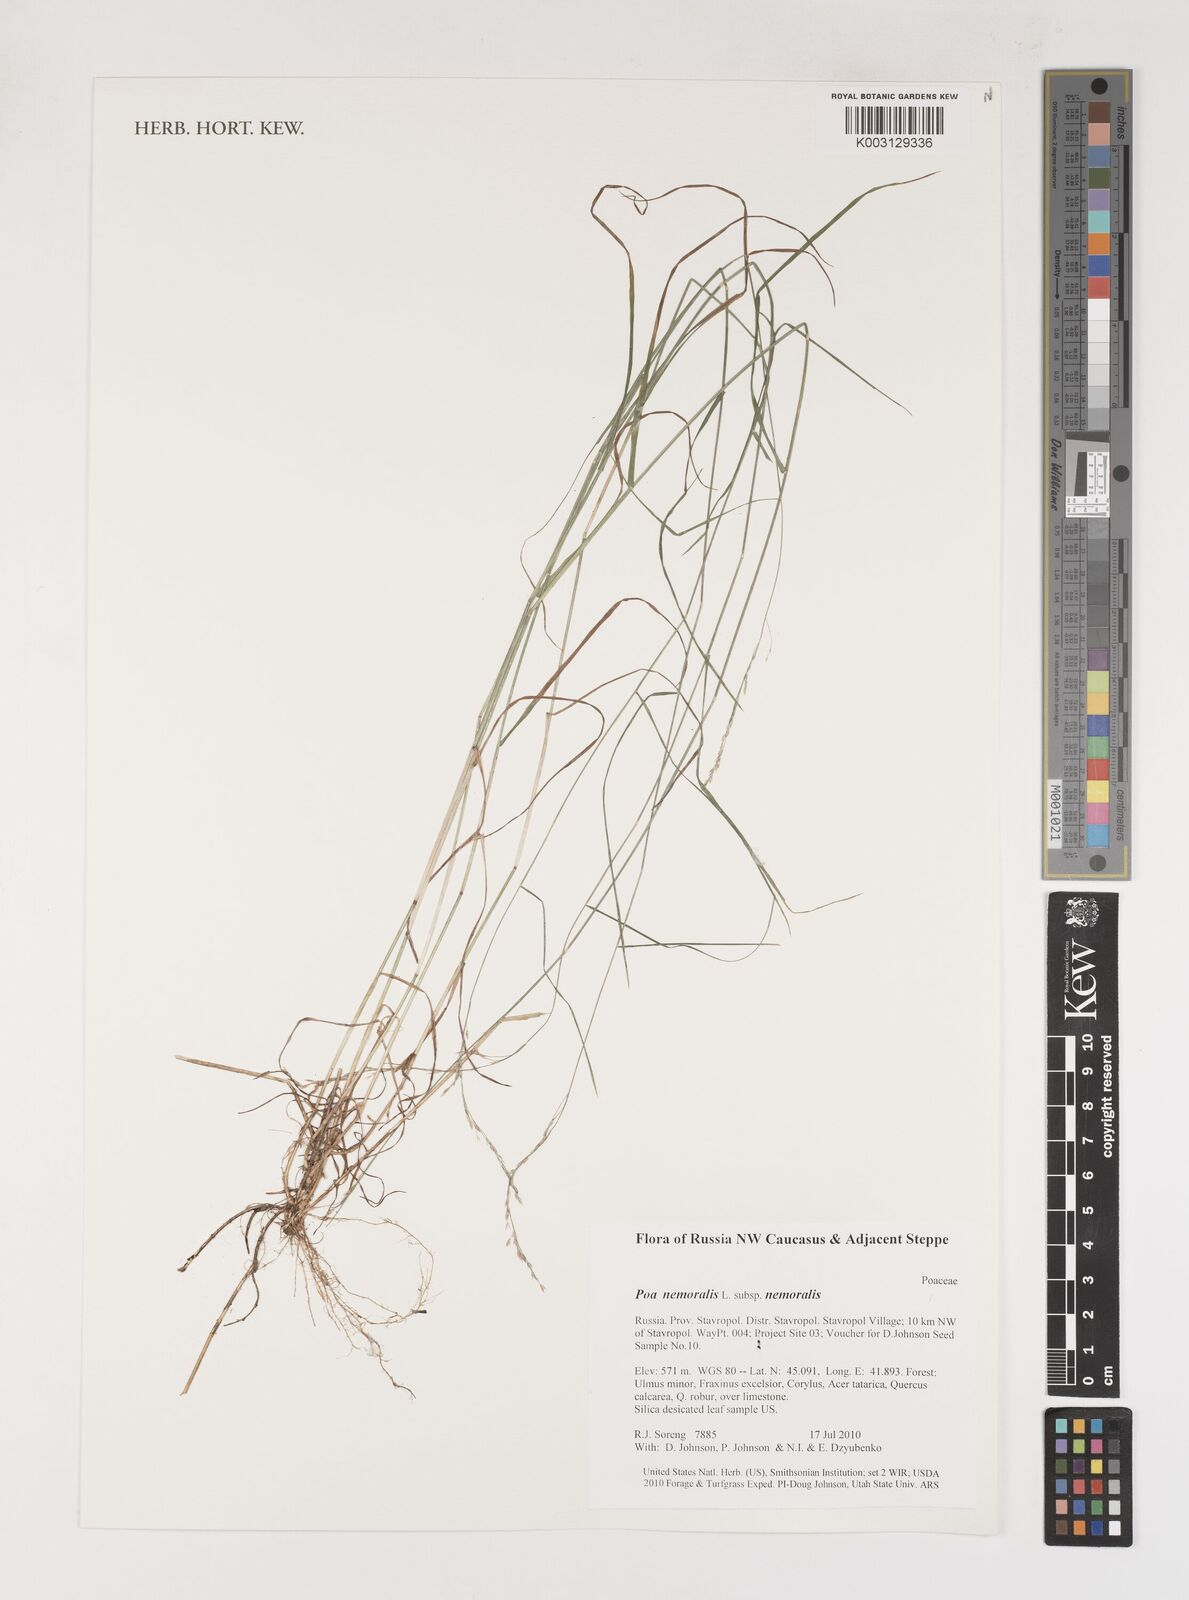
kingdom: Plantae
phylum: Tracheophyta
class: Liliopsida
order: Poales
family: Poaceae
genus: Poa
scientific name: Poa nemoralis
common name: Wood bluegrass
